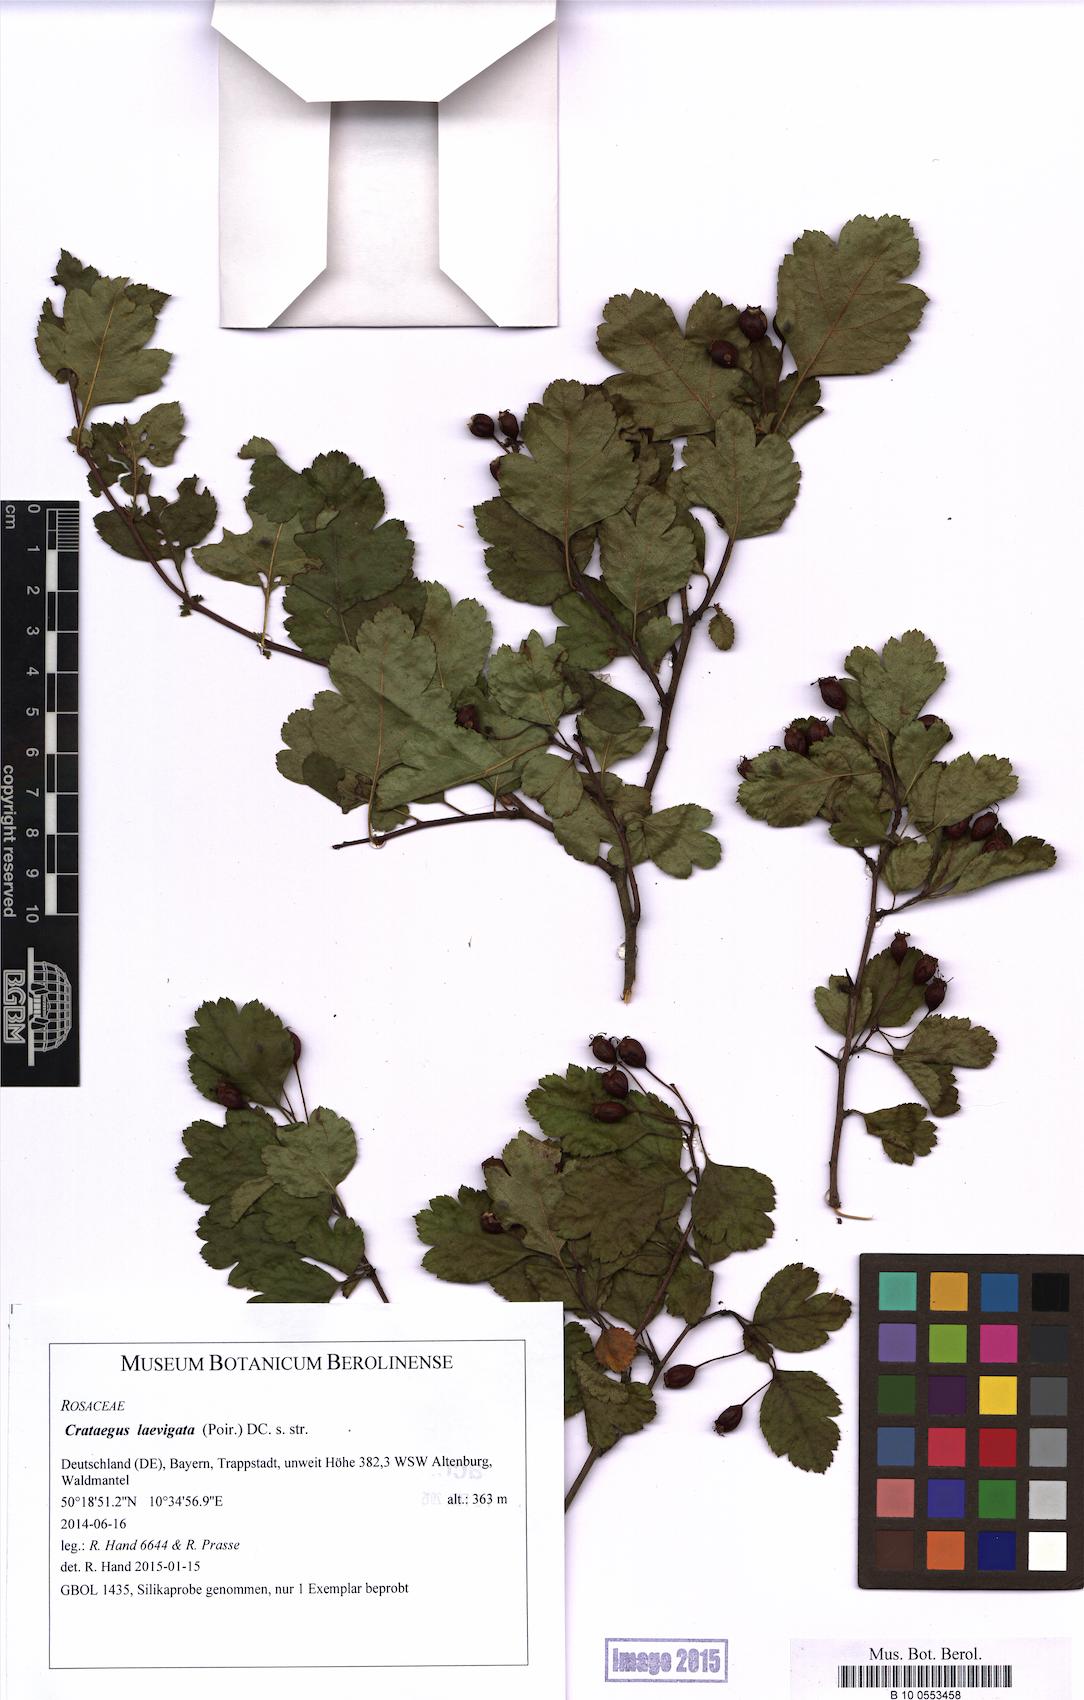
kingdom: Plantae
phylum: Tracheophyta
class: Magnoliopsida
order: Rosales
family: Rosaceae
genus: Crataegus
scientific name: Crataegus laevigata
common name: Midland hawthorn
